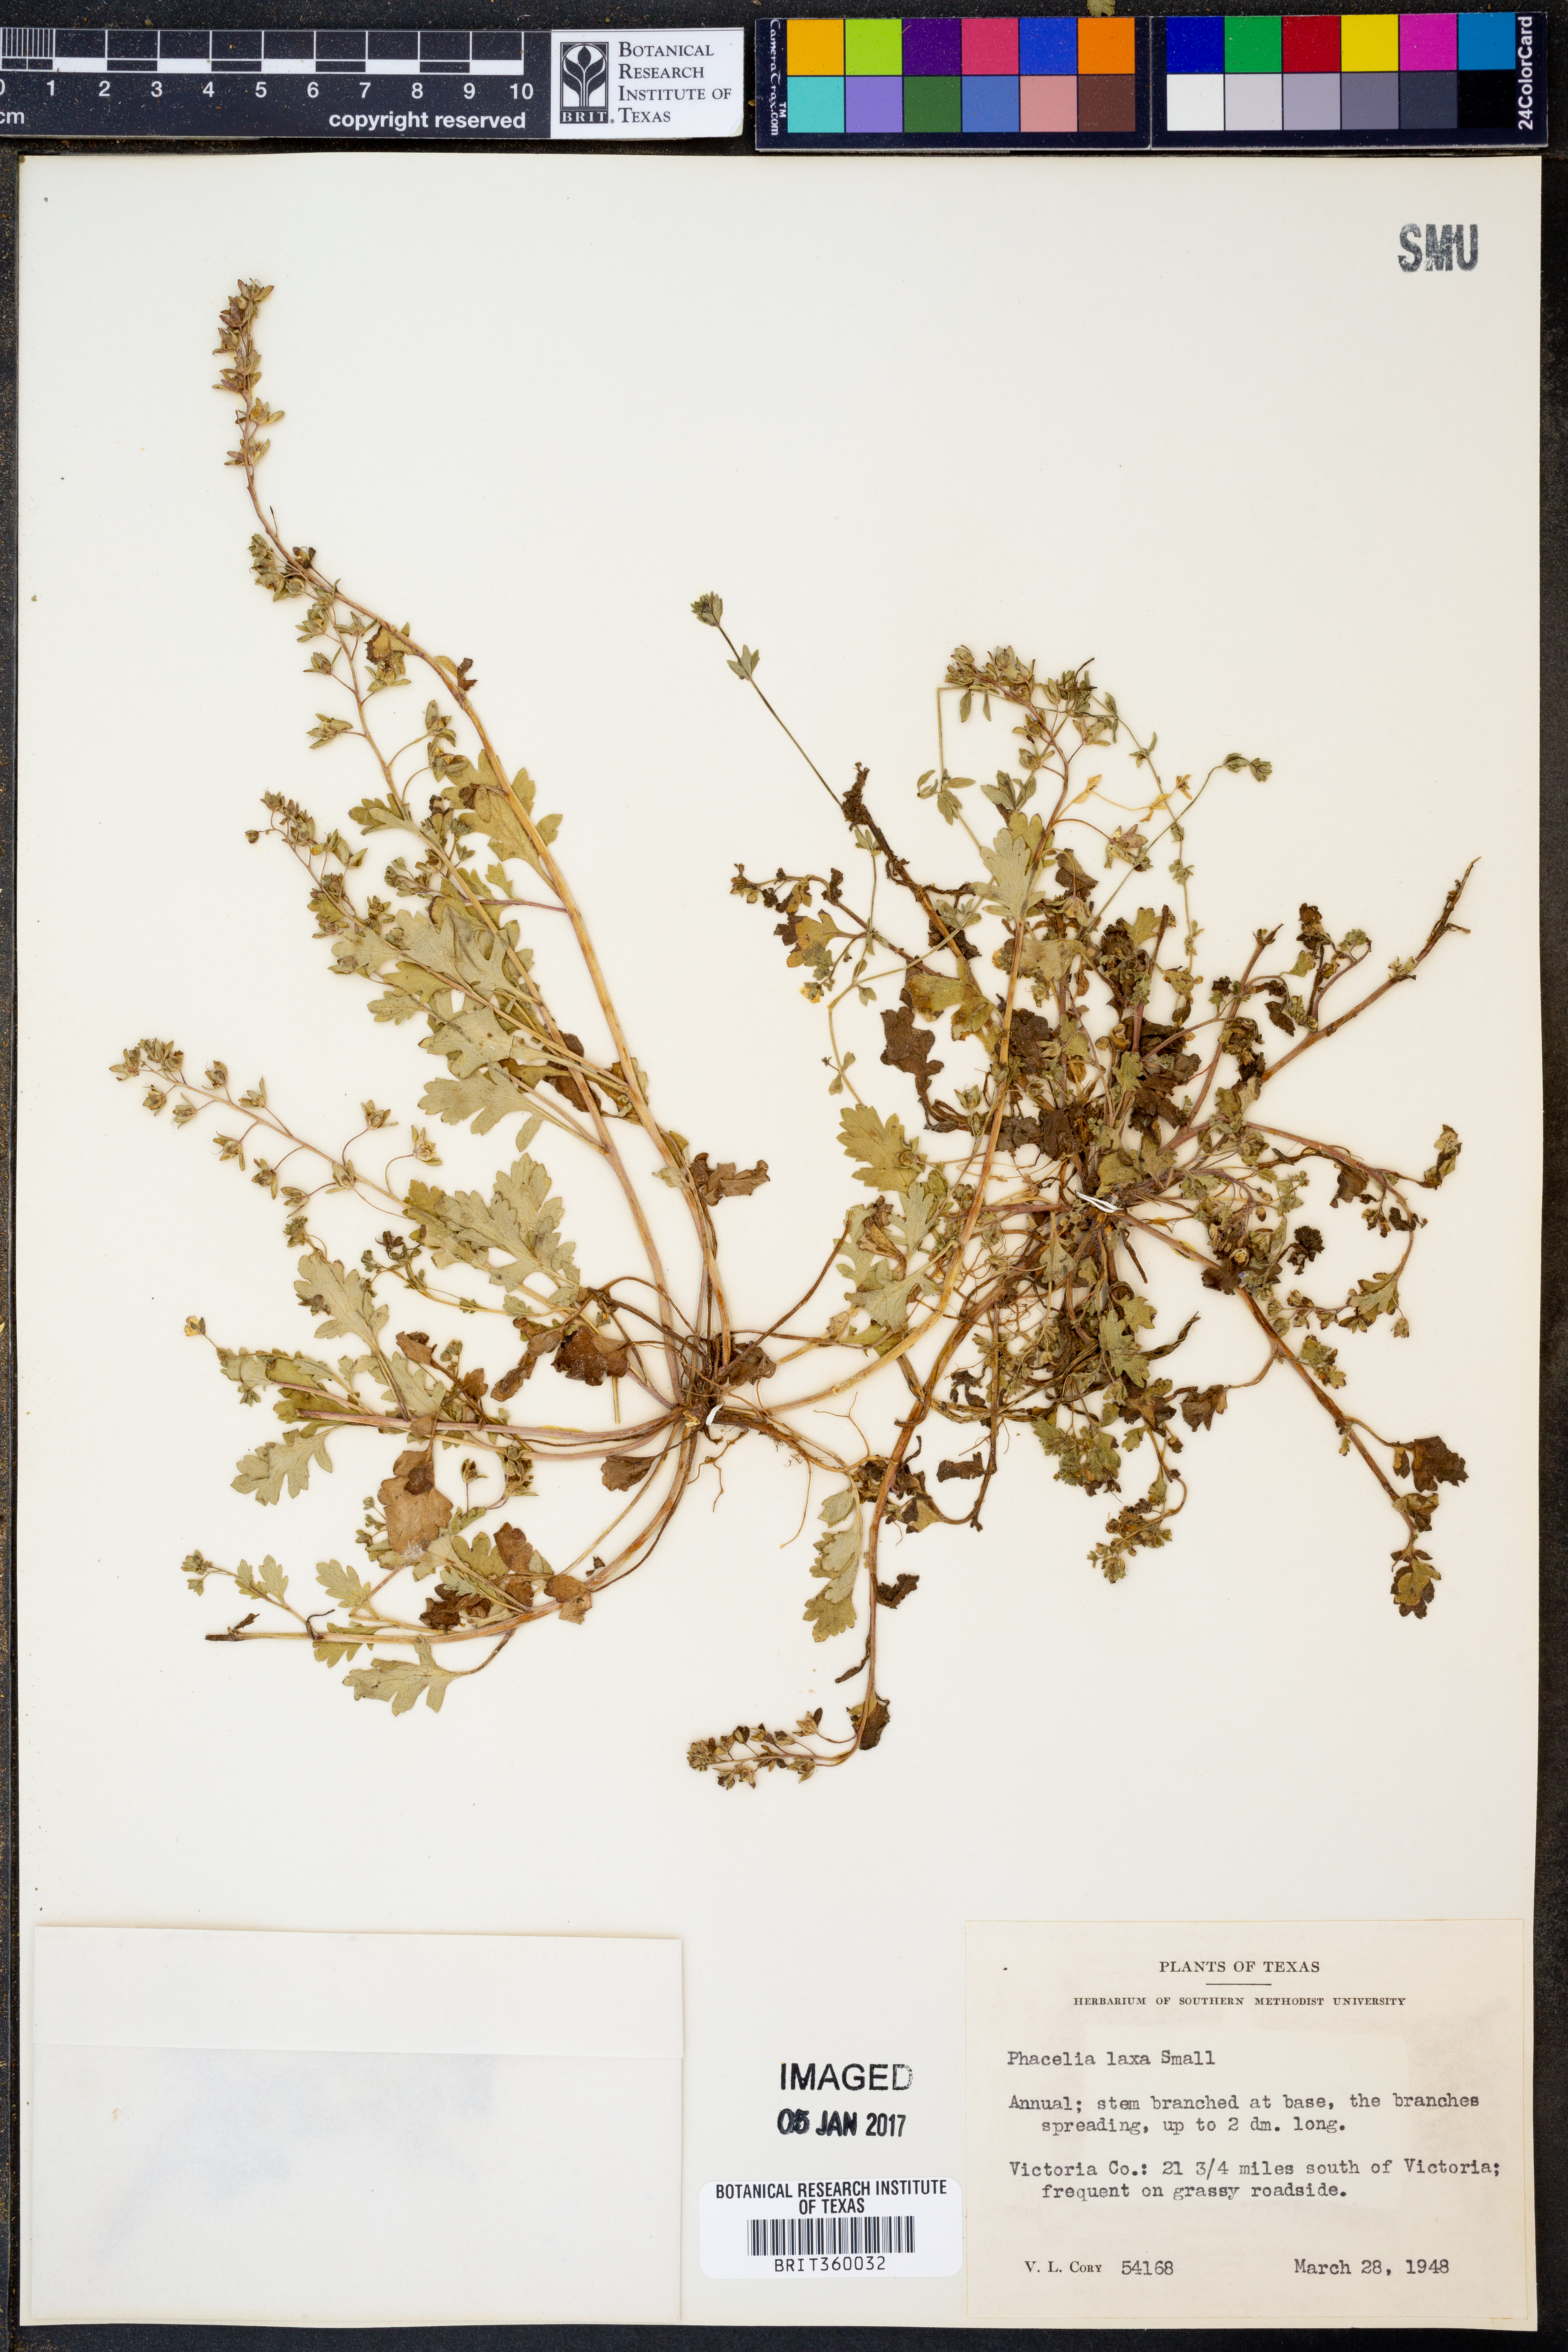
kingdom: Plantae
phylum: Tracheophyta
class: Magnoliopsida
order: Boraginales
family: Hydrophyllaceae
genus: Phacelia
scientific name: Phacelia laxa
